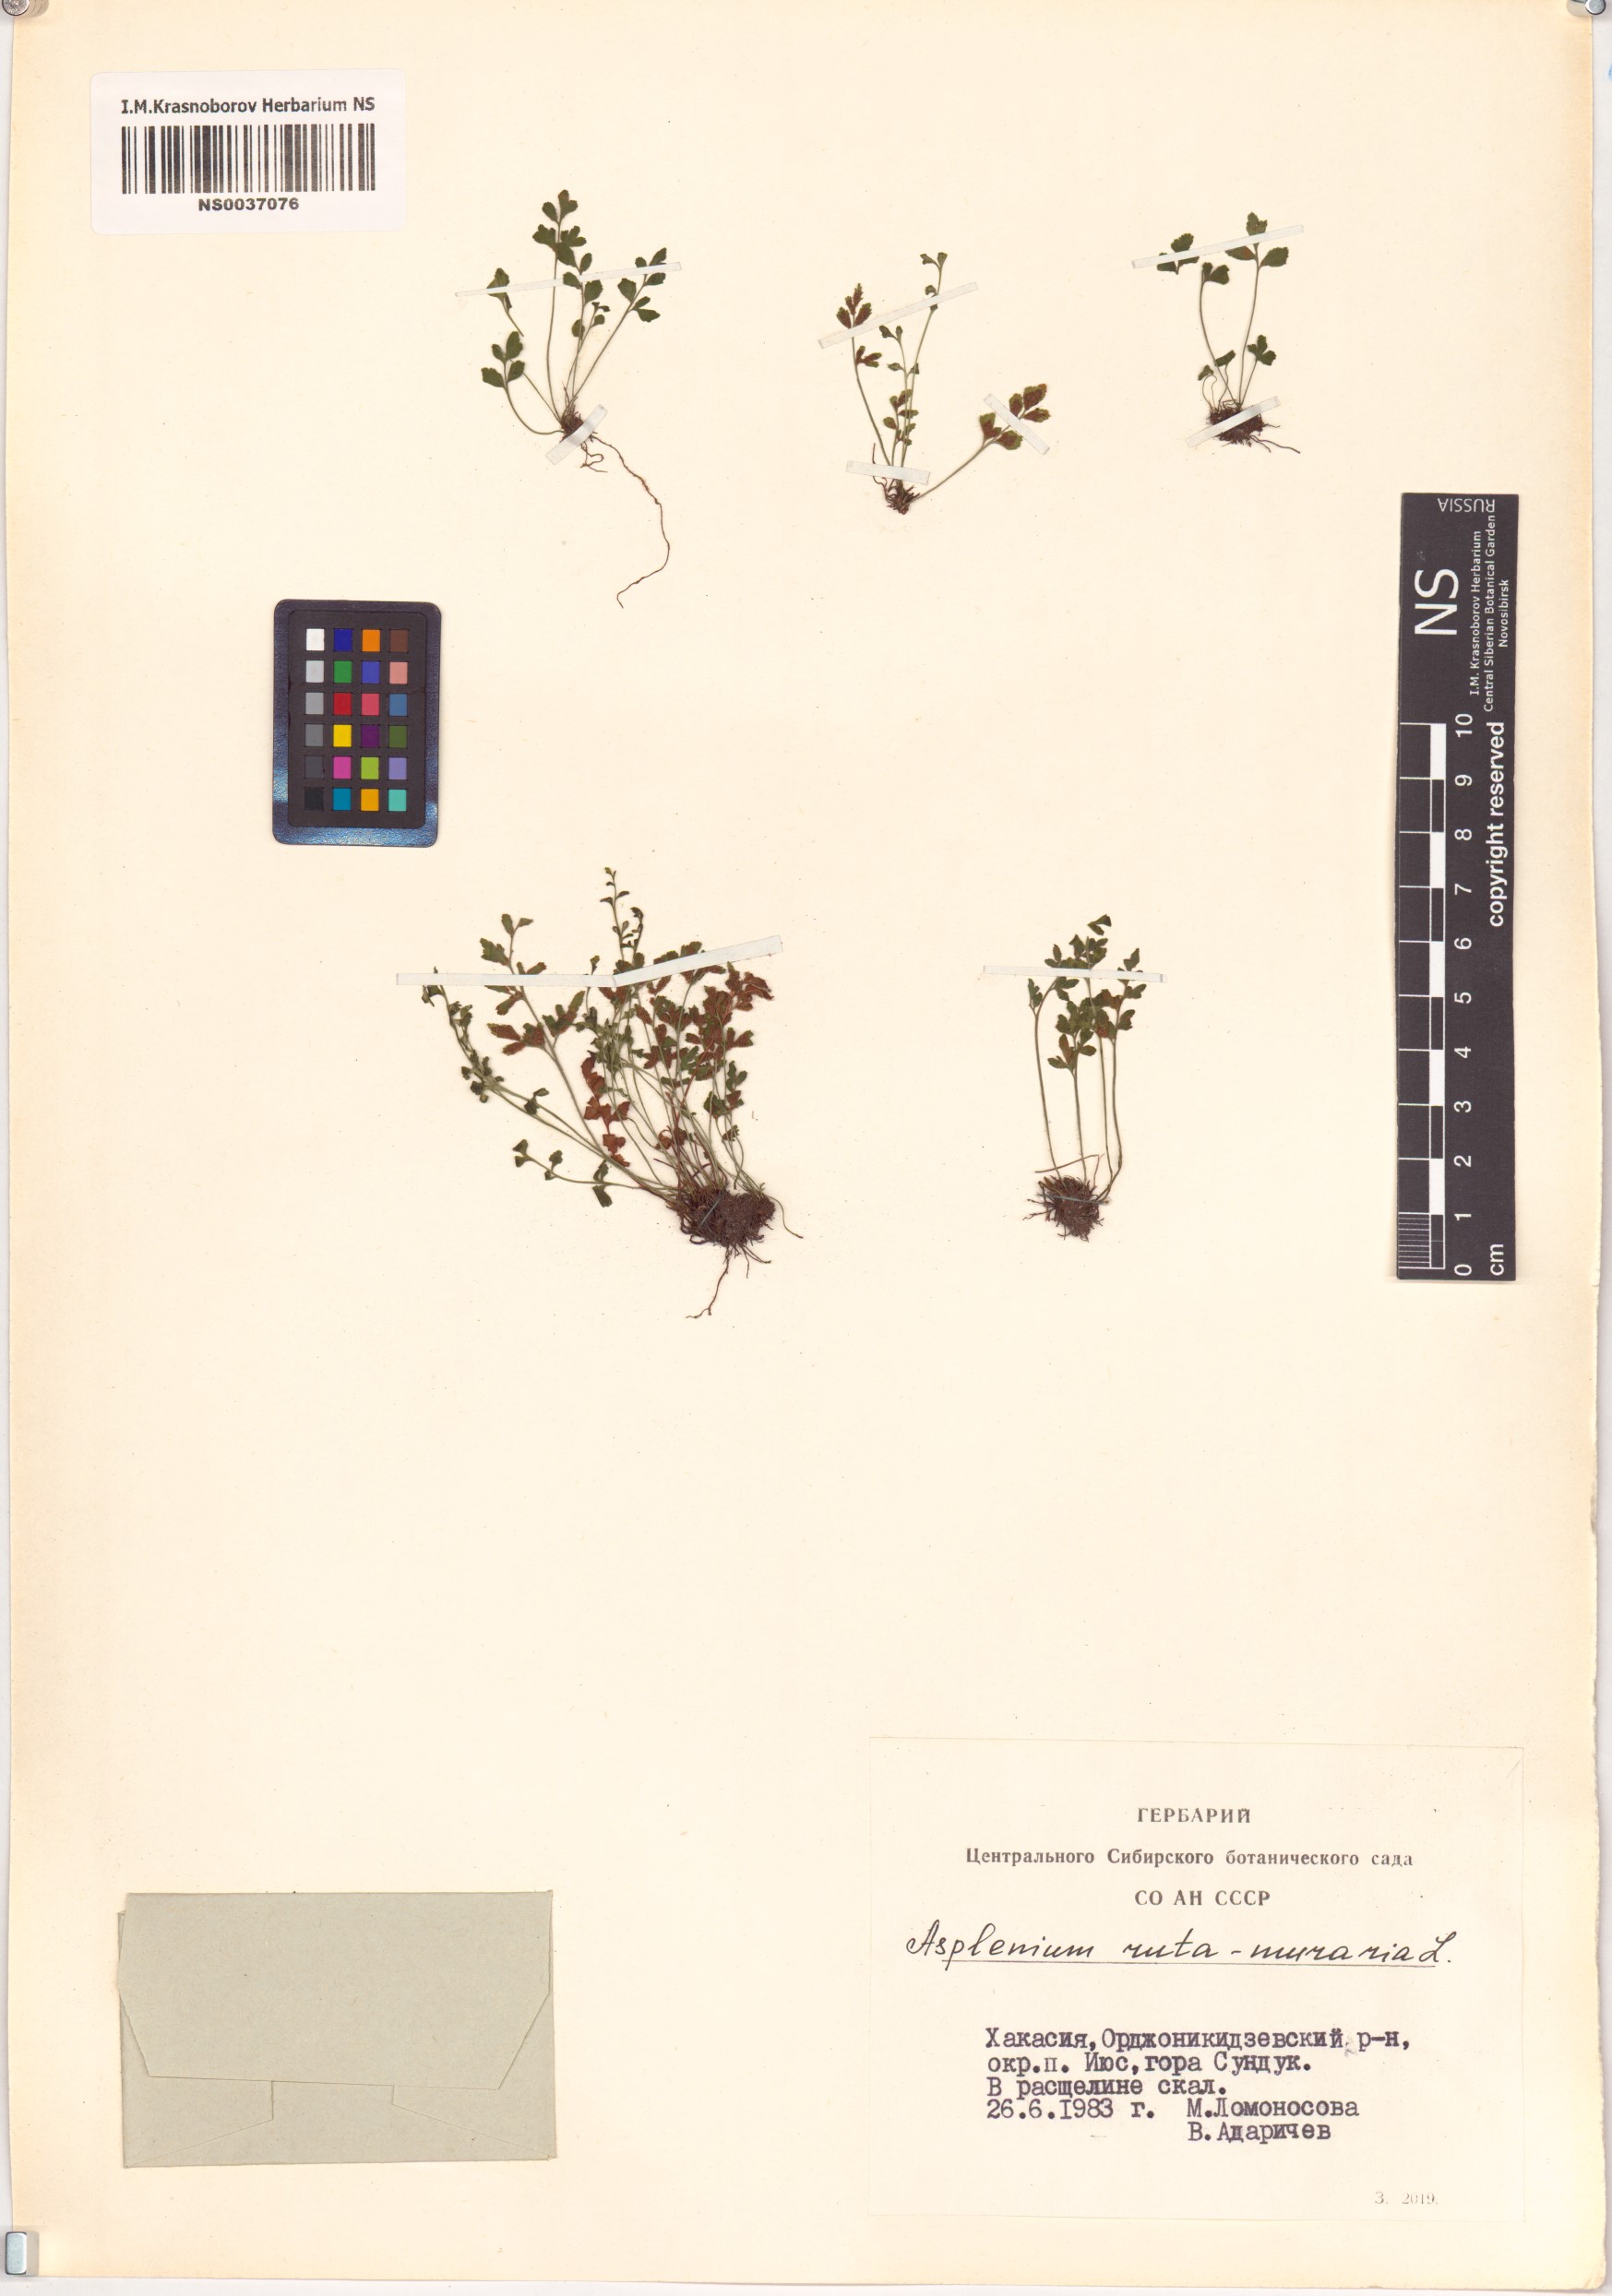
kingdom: Plantae
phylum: Tracheophyta
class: Polypodiopsida
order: Polypodiales
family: Aspleniaceae
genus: Asplenium
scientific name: Asplenium ruta-muraria
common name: Wall-rue
